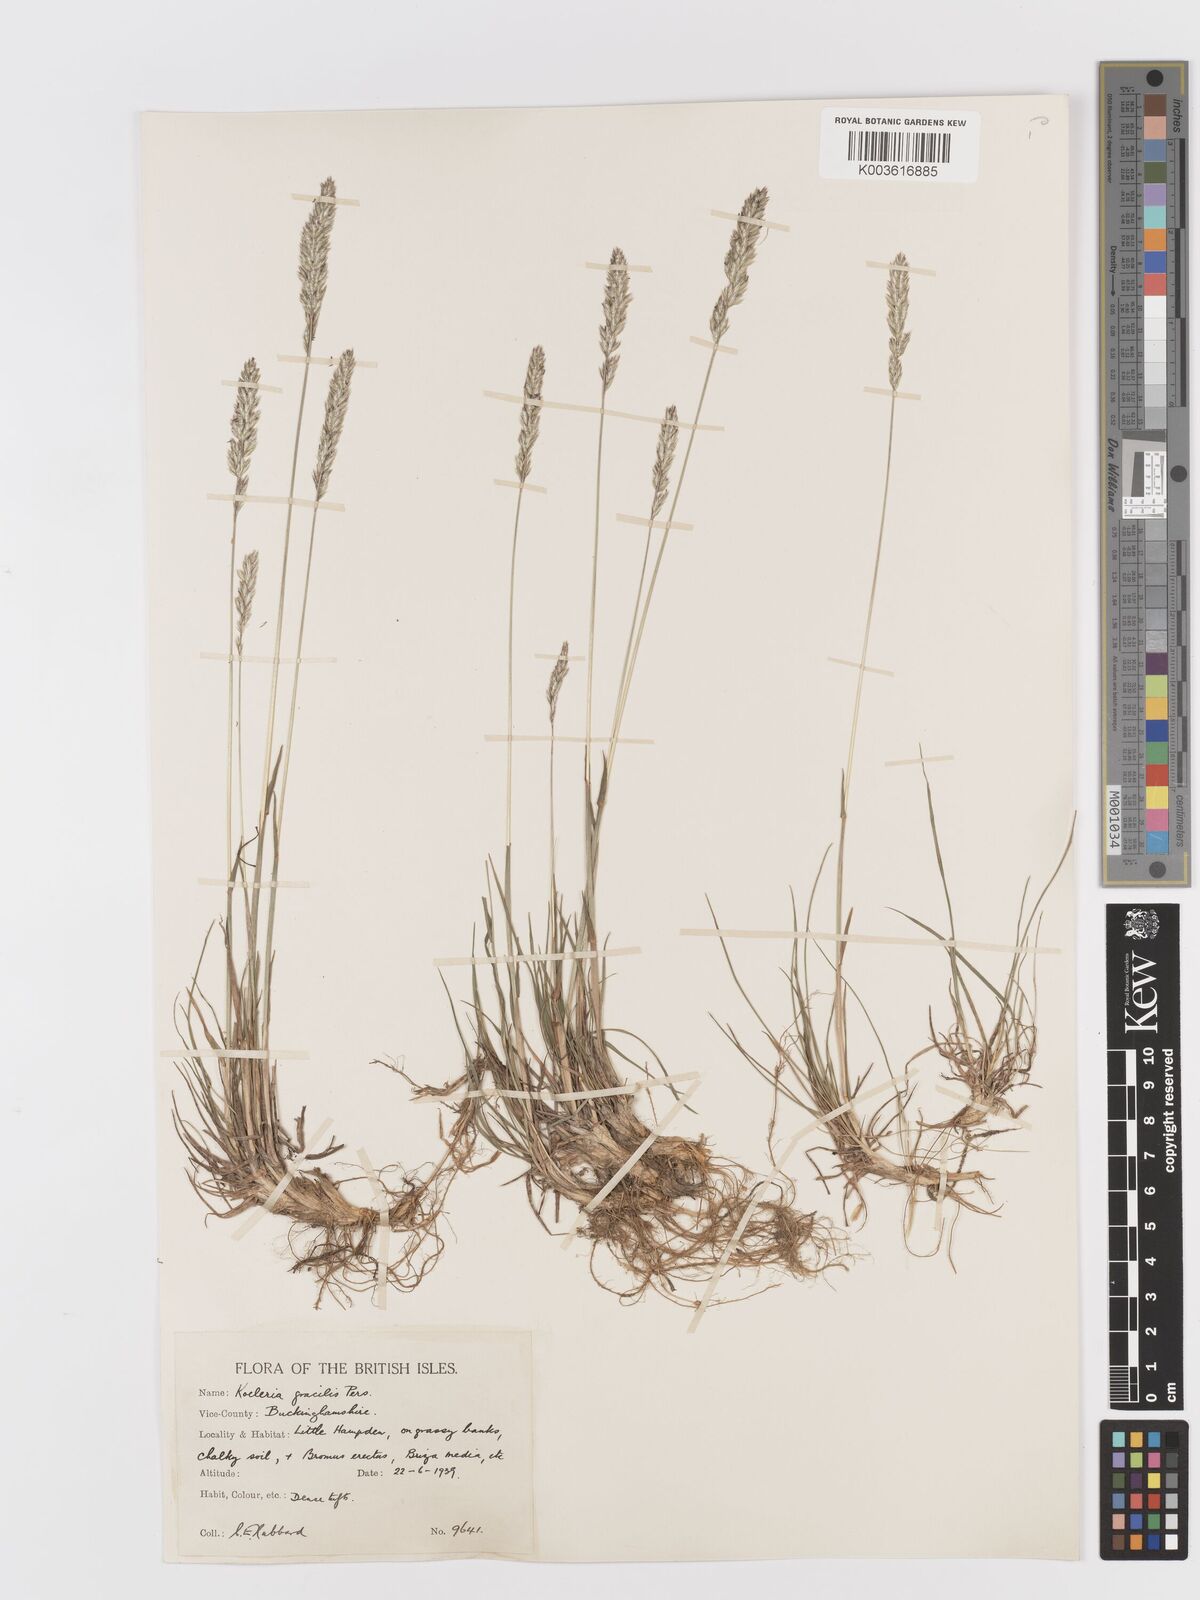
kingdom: Plantae
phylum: Tracheophyta
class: Liliopsida
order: Poales
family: Poaceae
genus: Koeleria
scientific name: Koeleria macrantha
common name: Crested hair-grass
